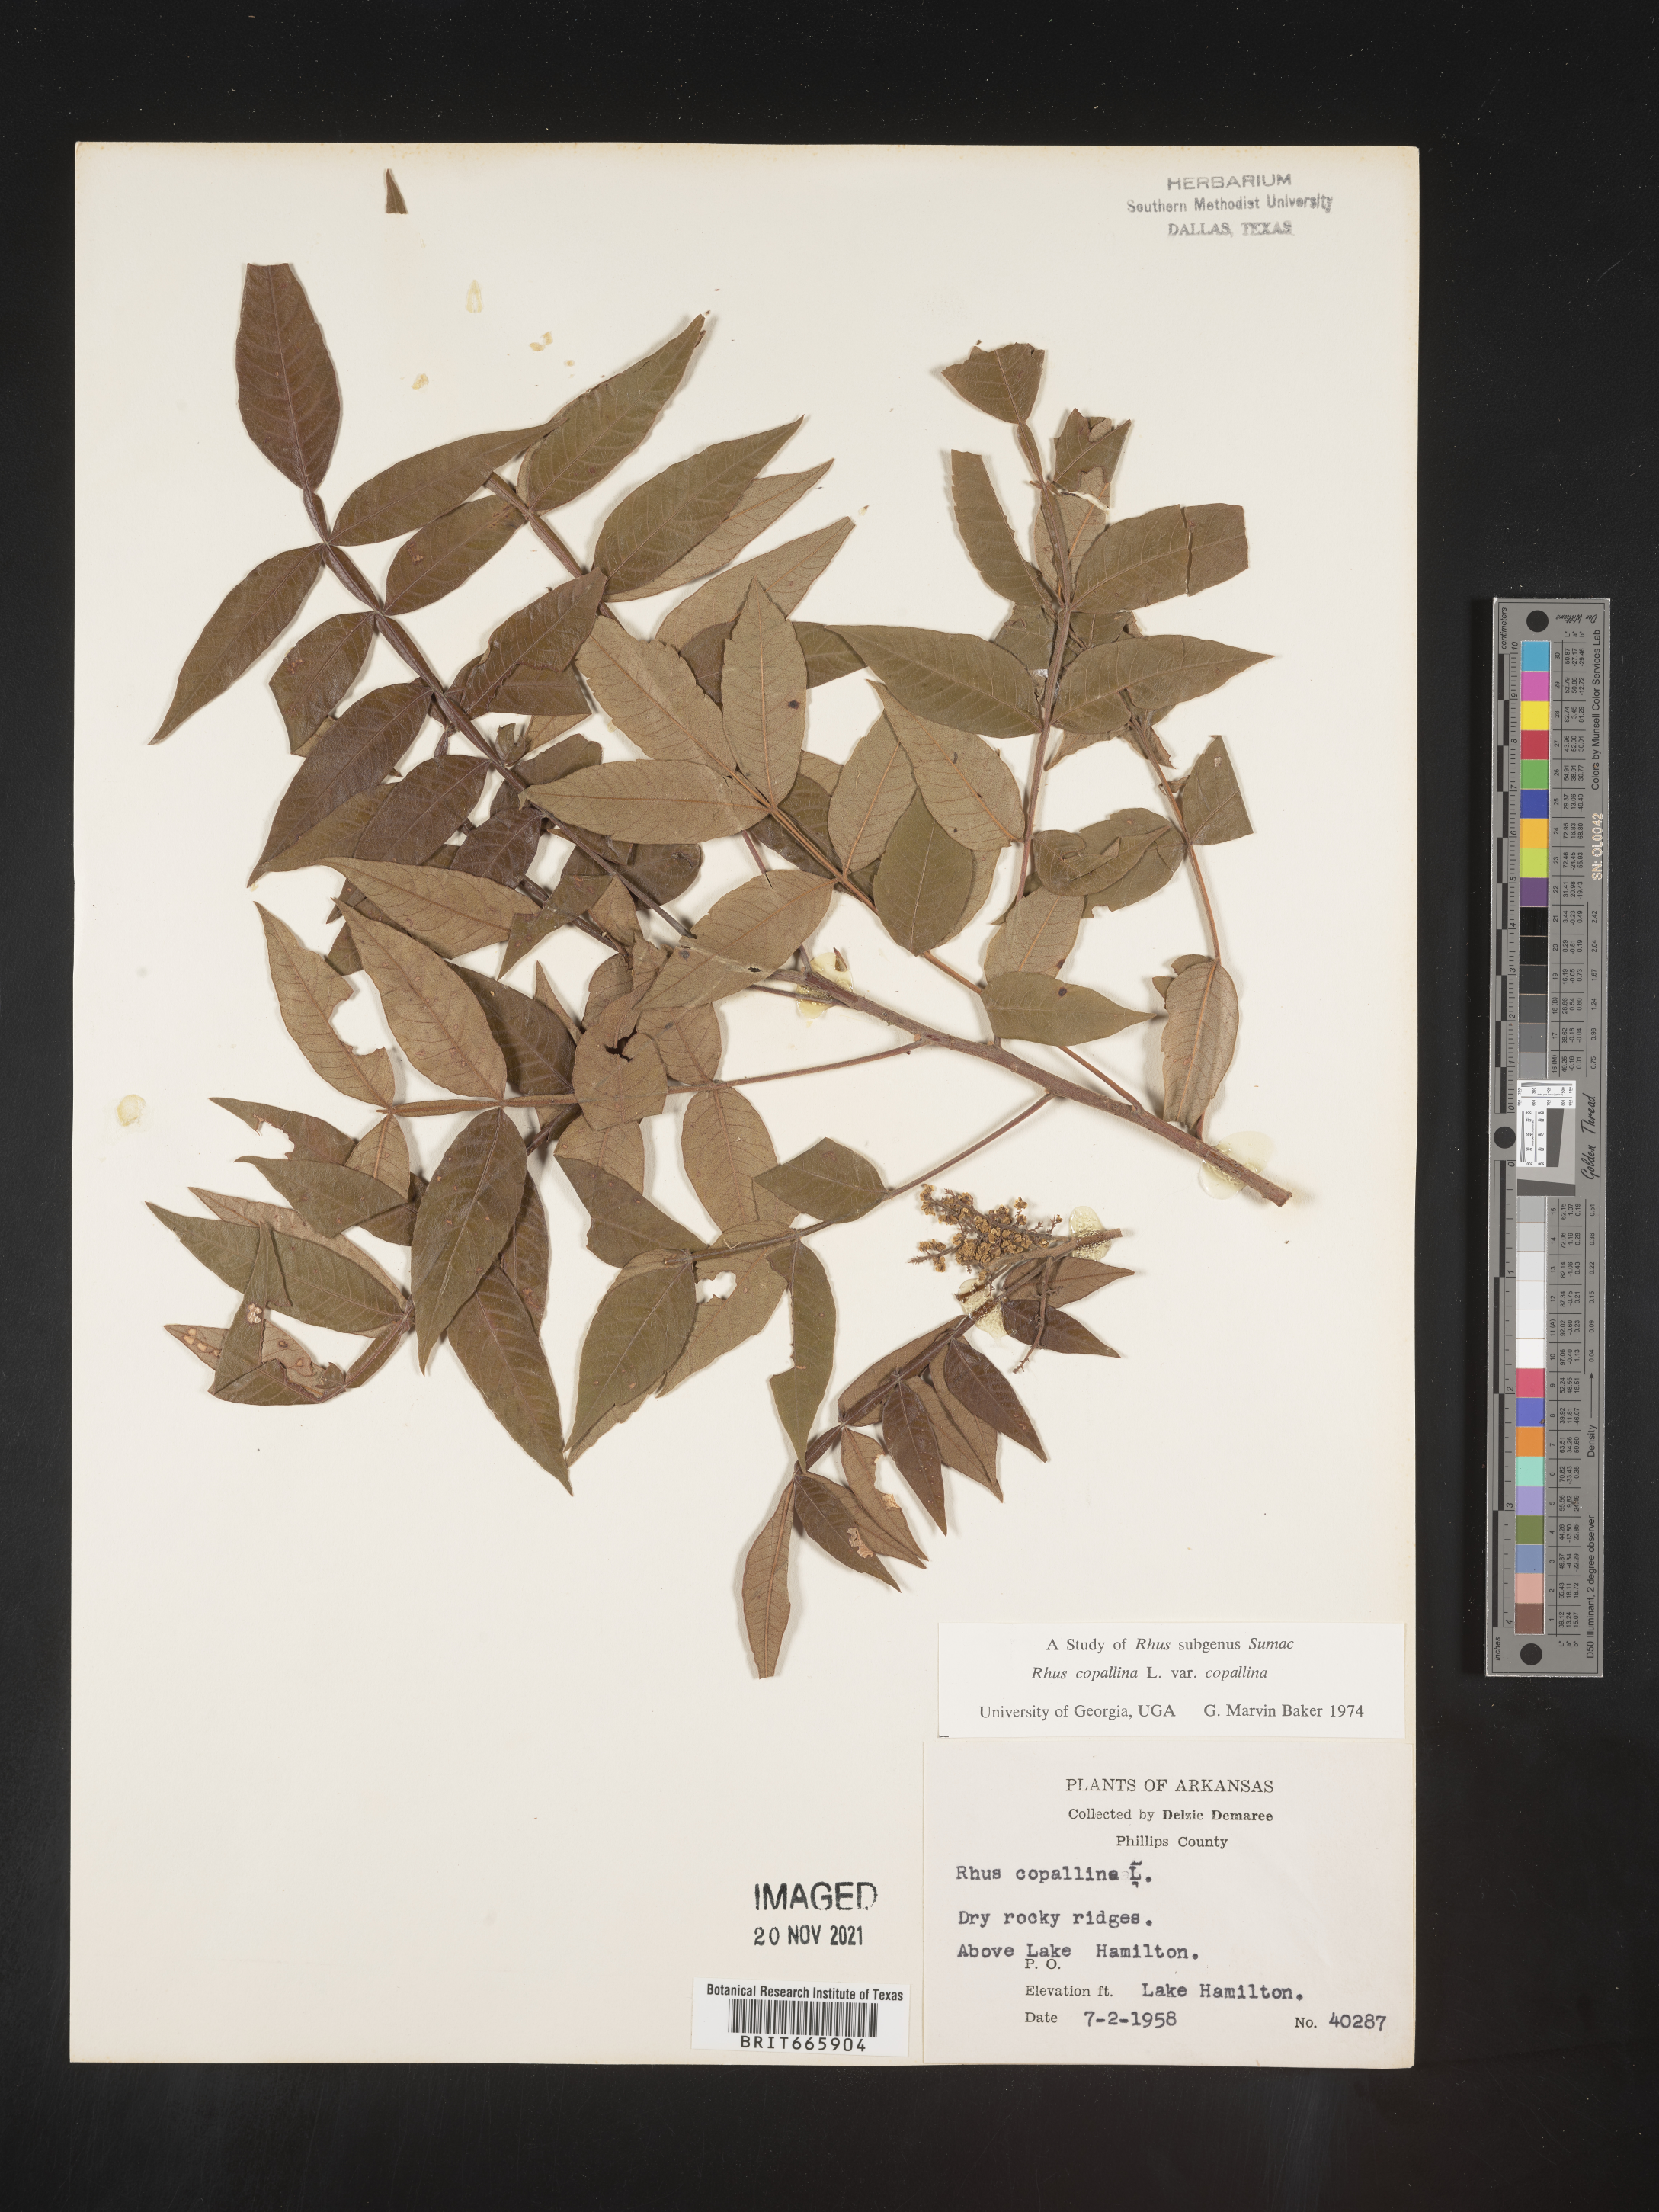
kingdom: Plantae
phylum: Tracheophyta
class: Magnoliopsida
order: Sapindales
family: Anacardiaceae
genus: Rhus
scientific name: Rhus copallina
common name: Shining sumac
